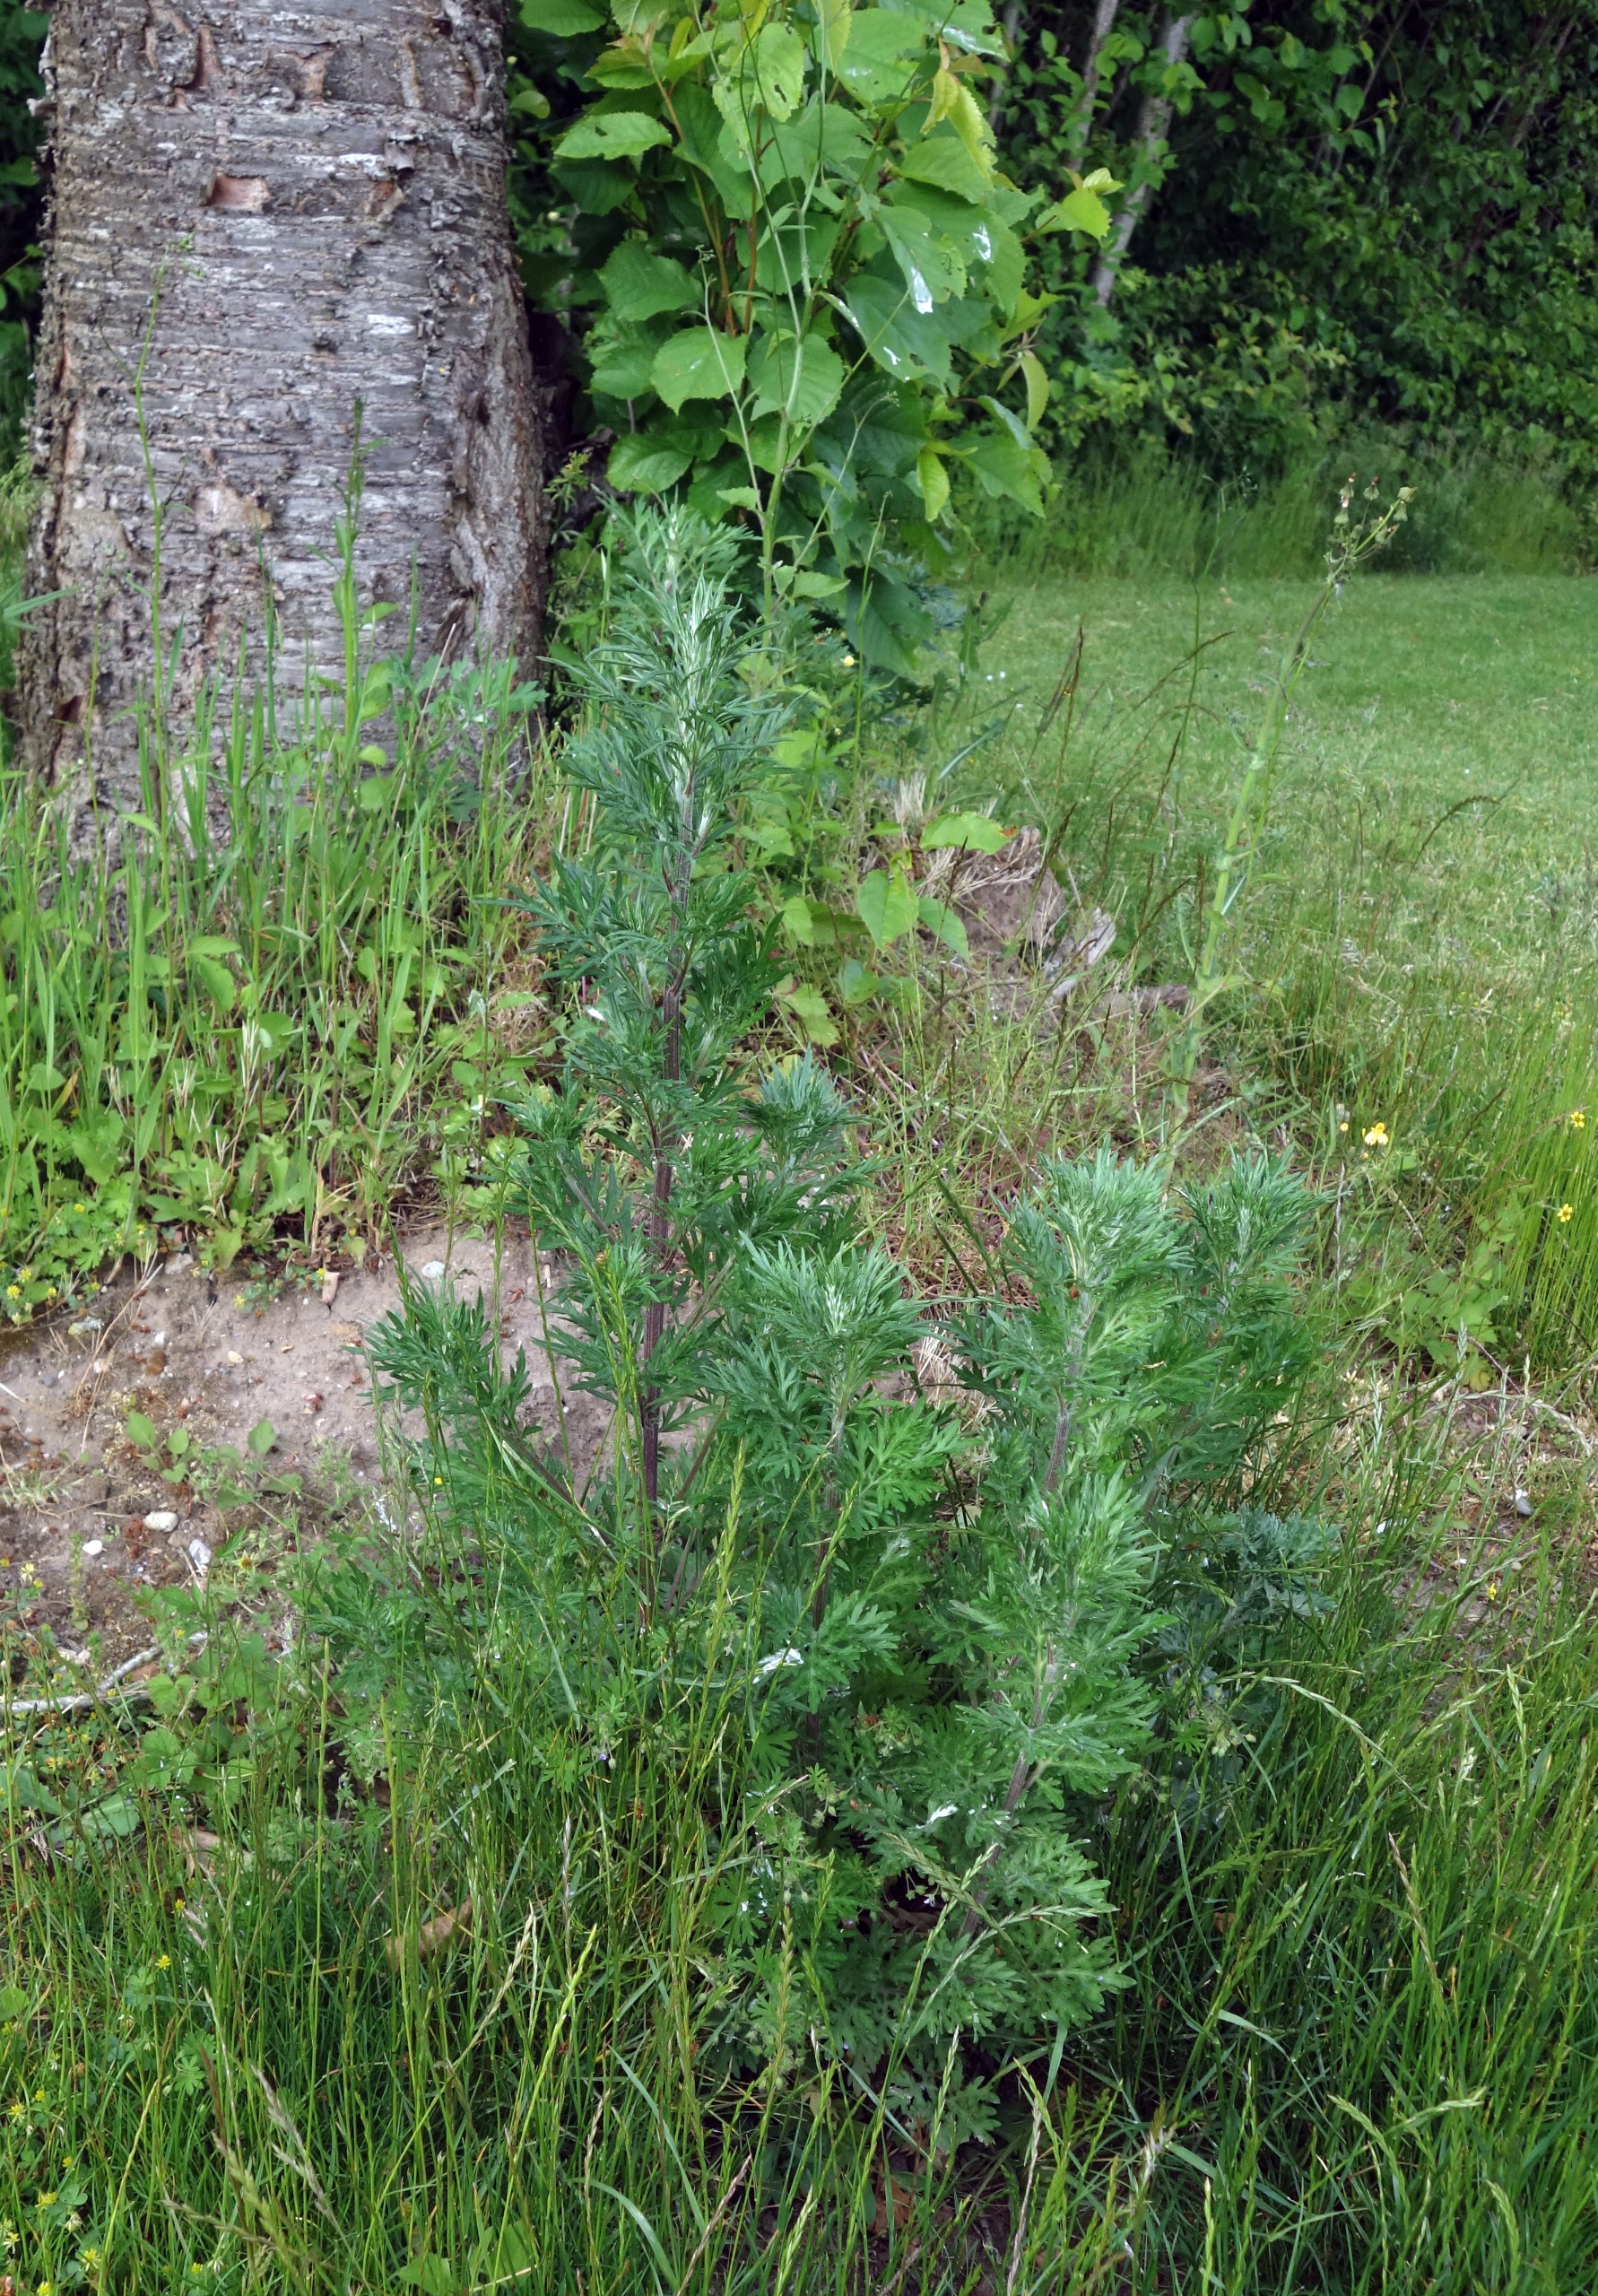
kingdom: Plantae
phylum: Tracheophyta
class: Magnoliopsida
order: Asterales
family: Asteraceae
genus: Artemisia
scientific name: Artemisia vulgaris
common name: Grå-bynke
